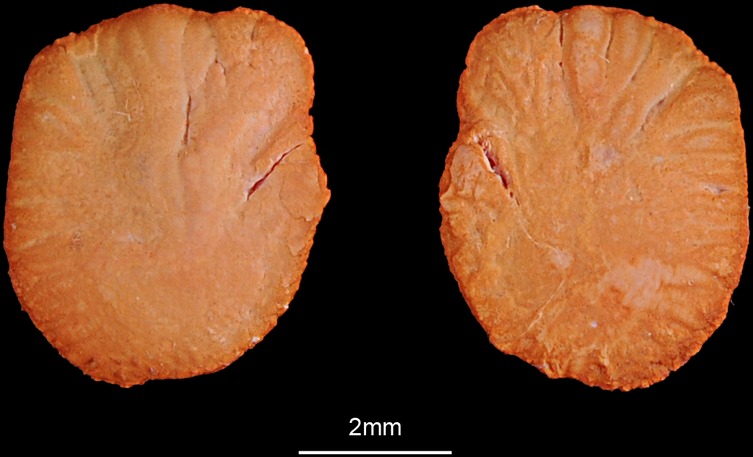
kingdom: Animalia
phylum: Chordata
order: Siluriformes
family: Plotosidae
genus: Plotosus
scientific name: Plotosus lineatus
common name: Striped eel catfish
